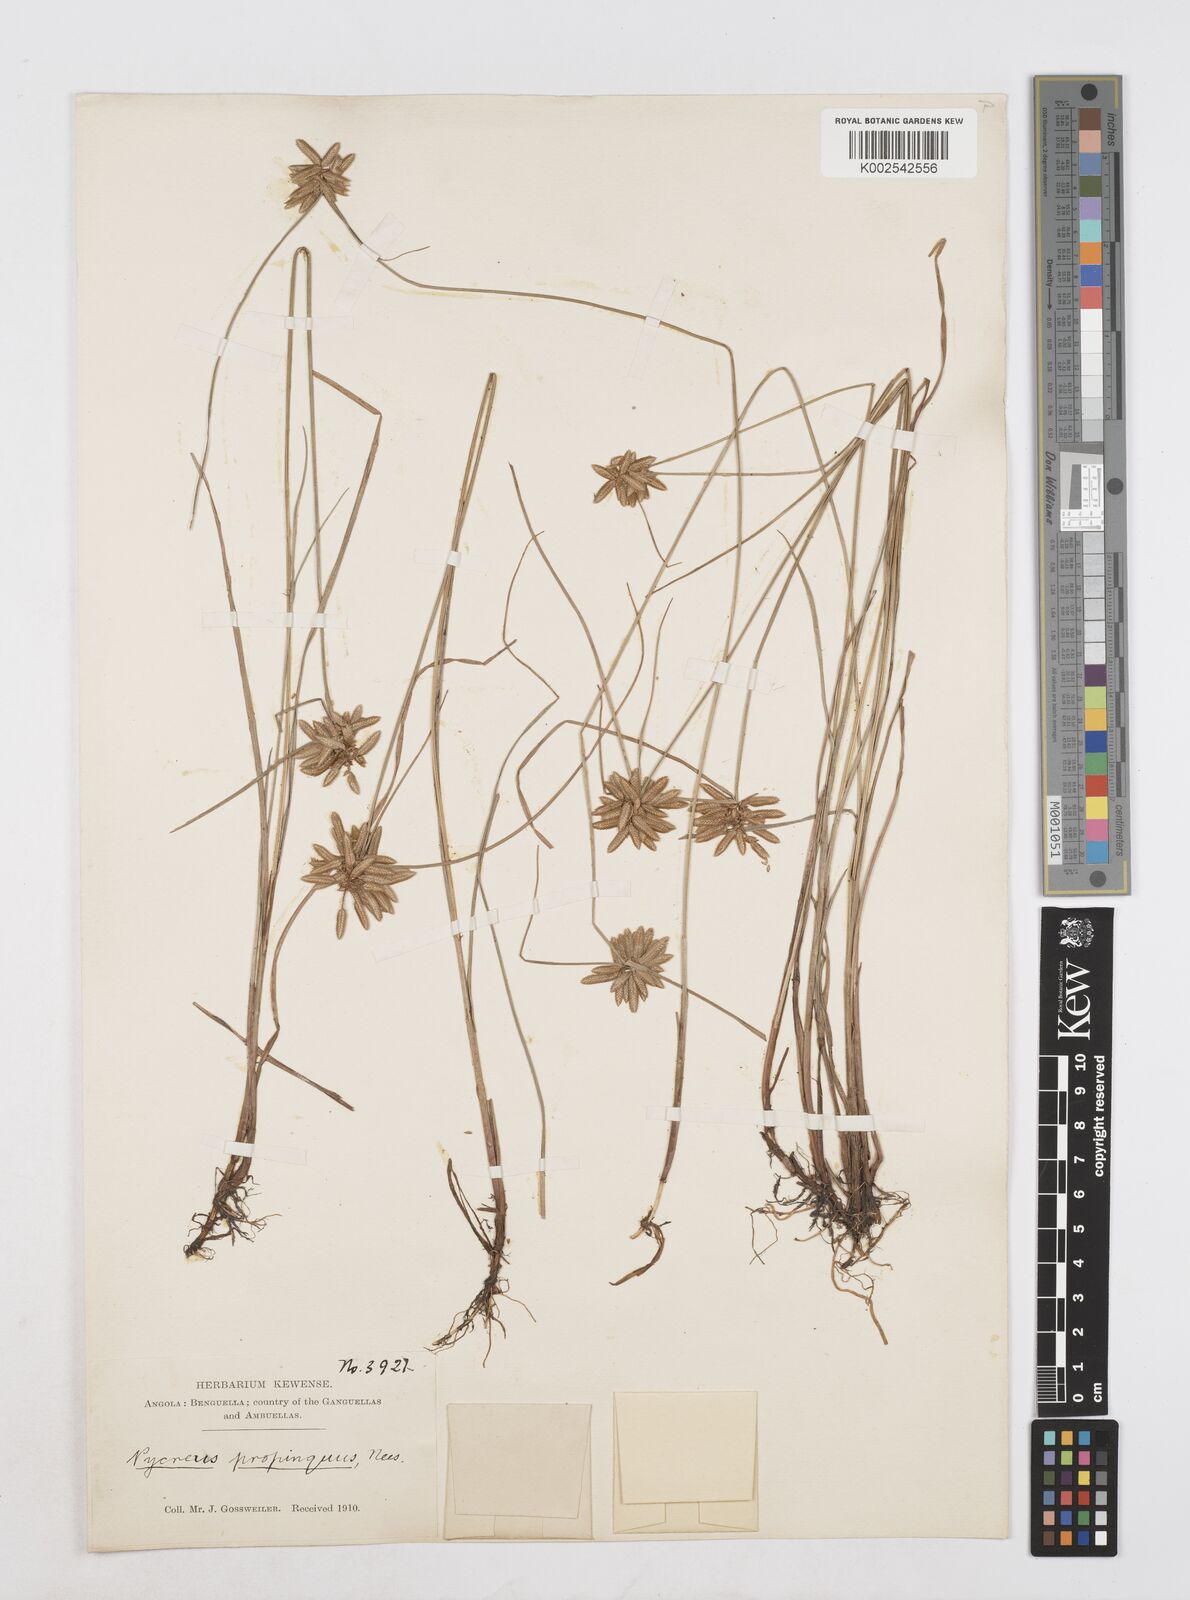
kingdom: Plantae
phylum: Tracheophyta
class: Liliopsida
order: Poales
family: Cyperaceae
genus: Cyperus
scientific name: Cyperus
